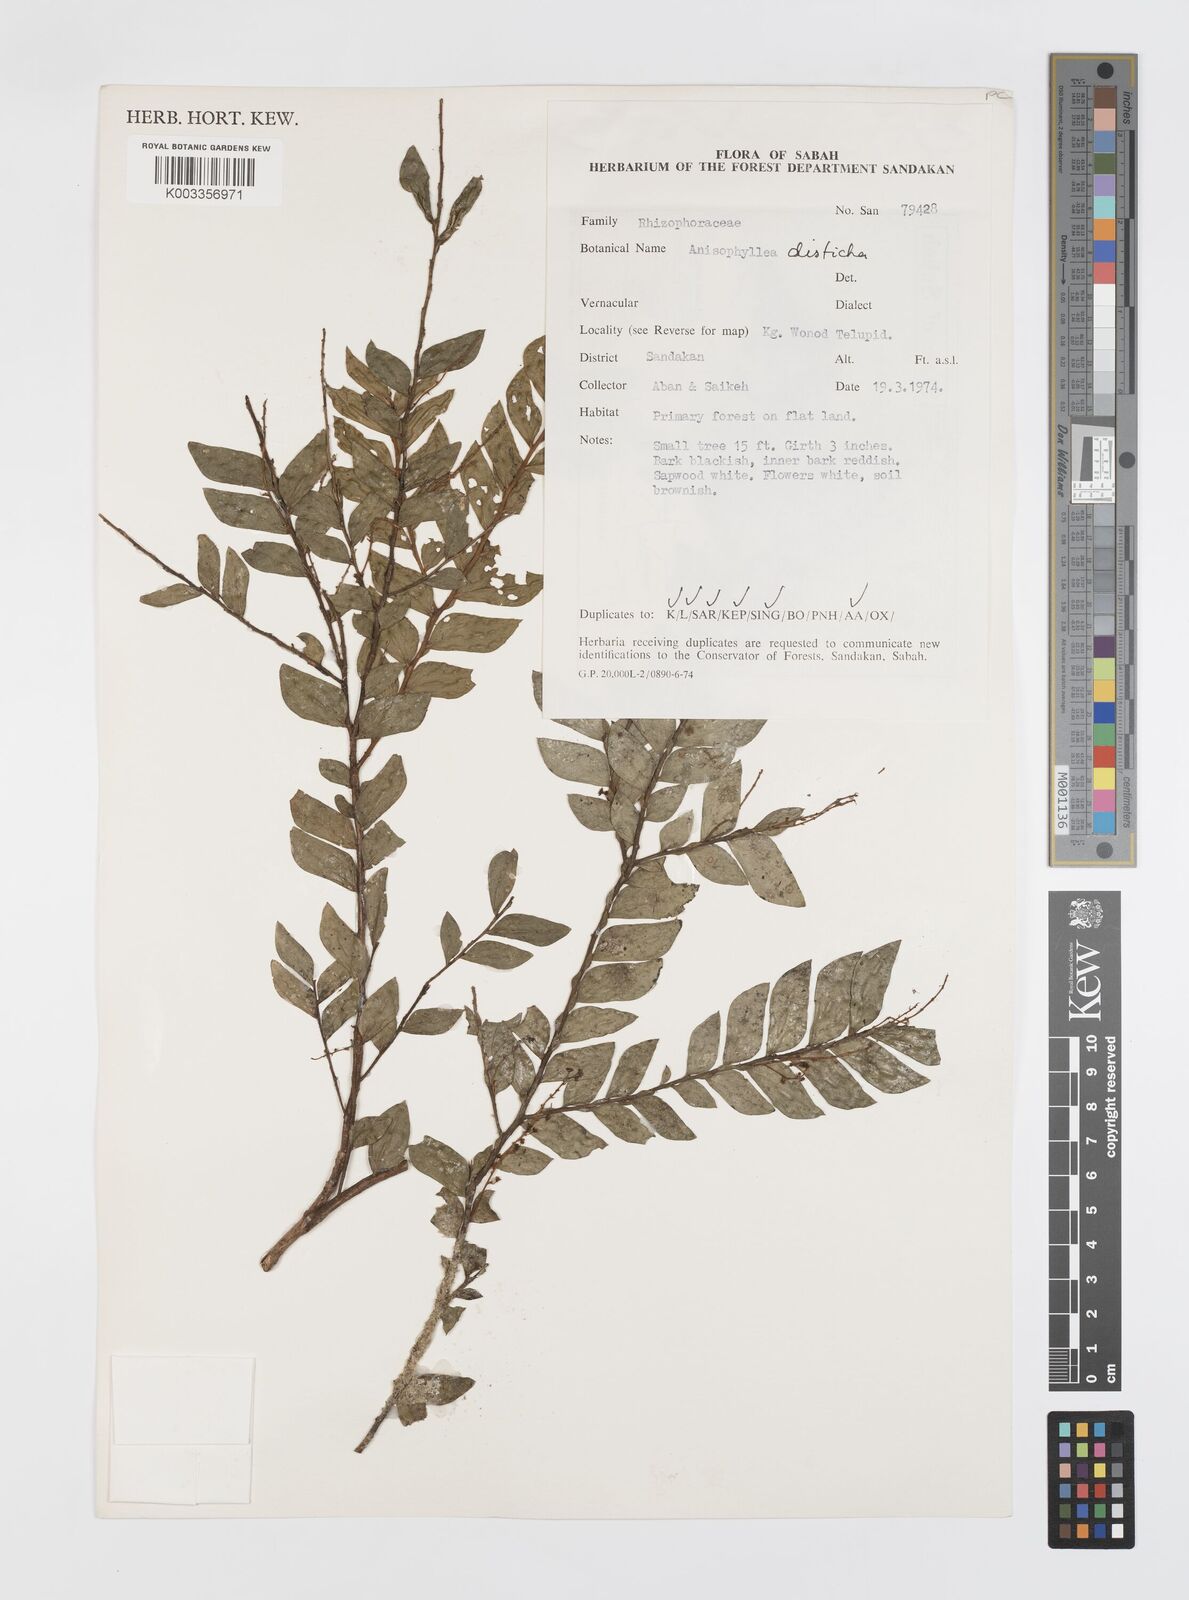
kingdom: Plantae
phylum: Tracheophyta
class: Magnoliopsida
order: Cucurbitales
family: Anisophylleaceae
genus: Anisophyllea
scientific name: Anisophyllea disticha
